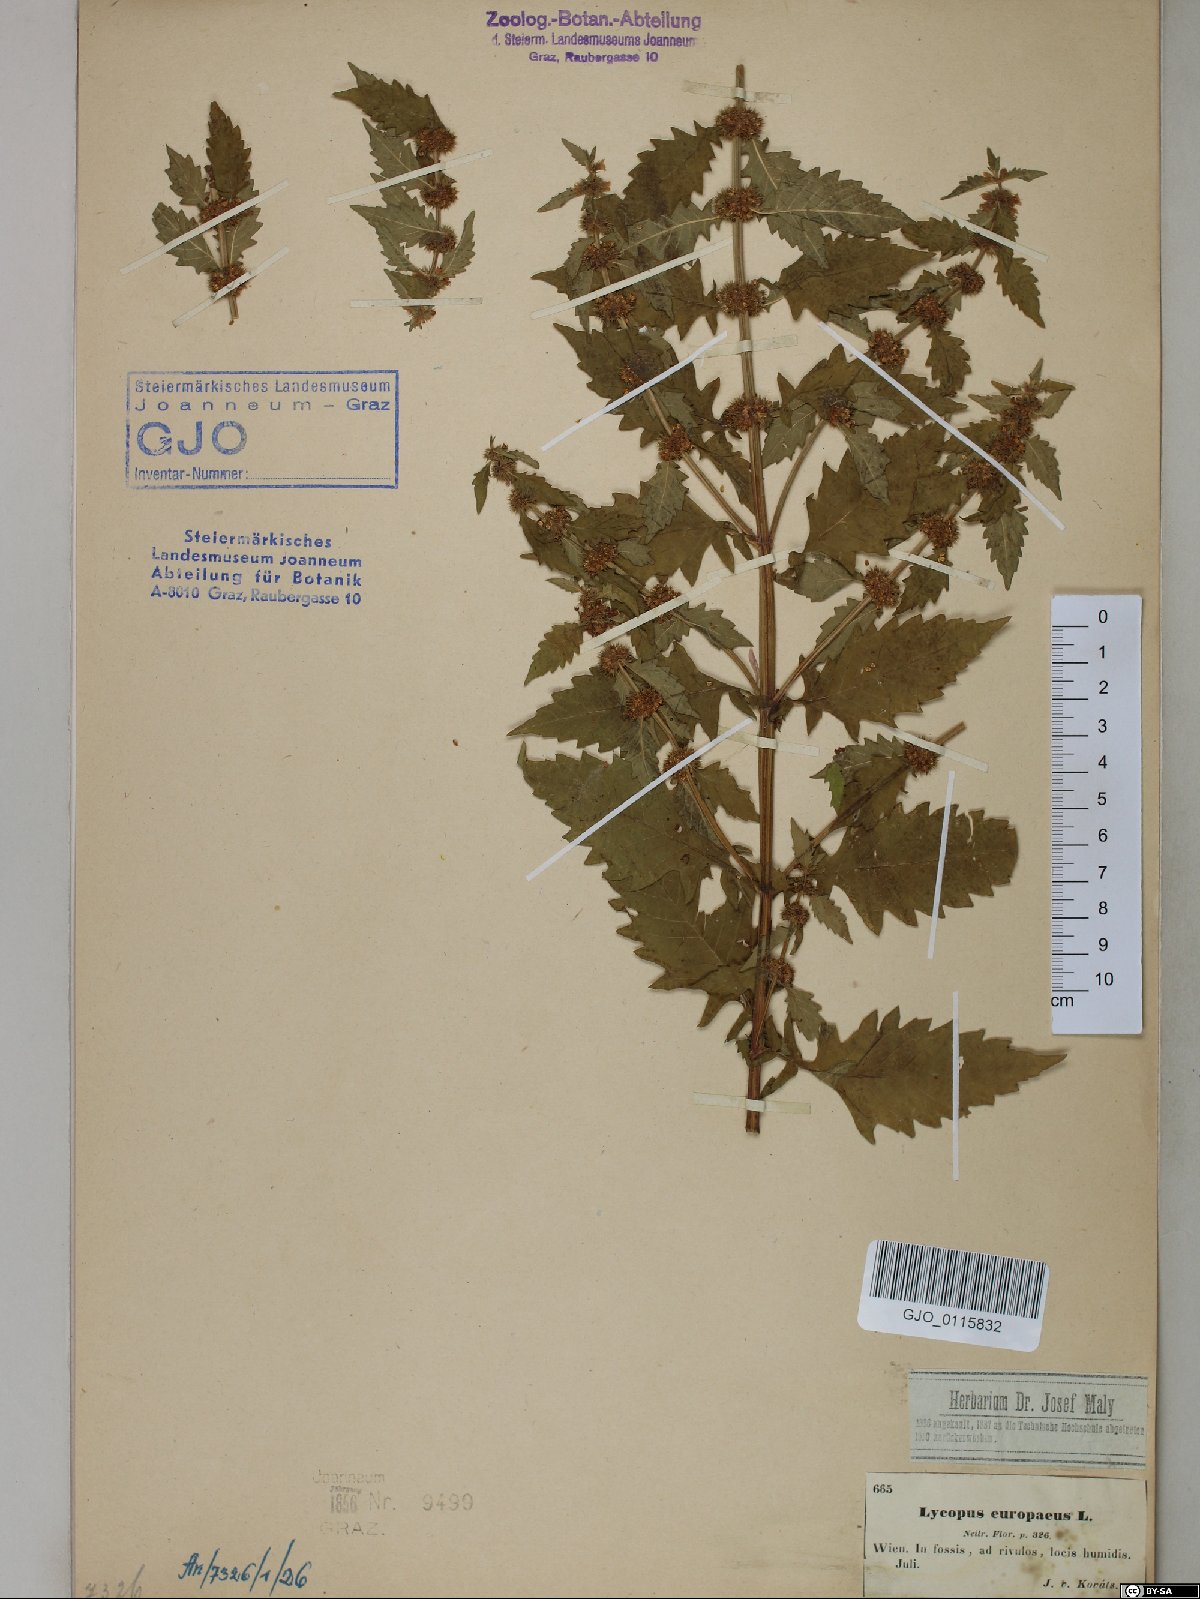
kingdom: Plantae
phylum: Tracheophyta
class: Magnoliopsida
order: Lamiales
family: Lamiaceae
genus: Lycopus
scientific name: Lycopus europaeus
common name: European bugleweed
